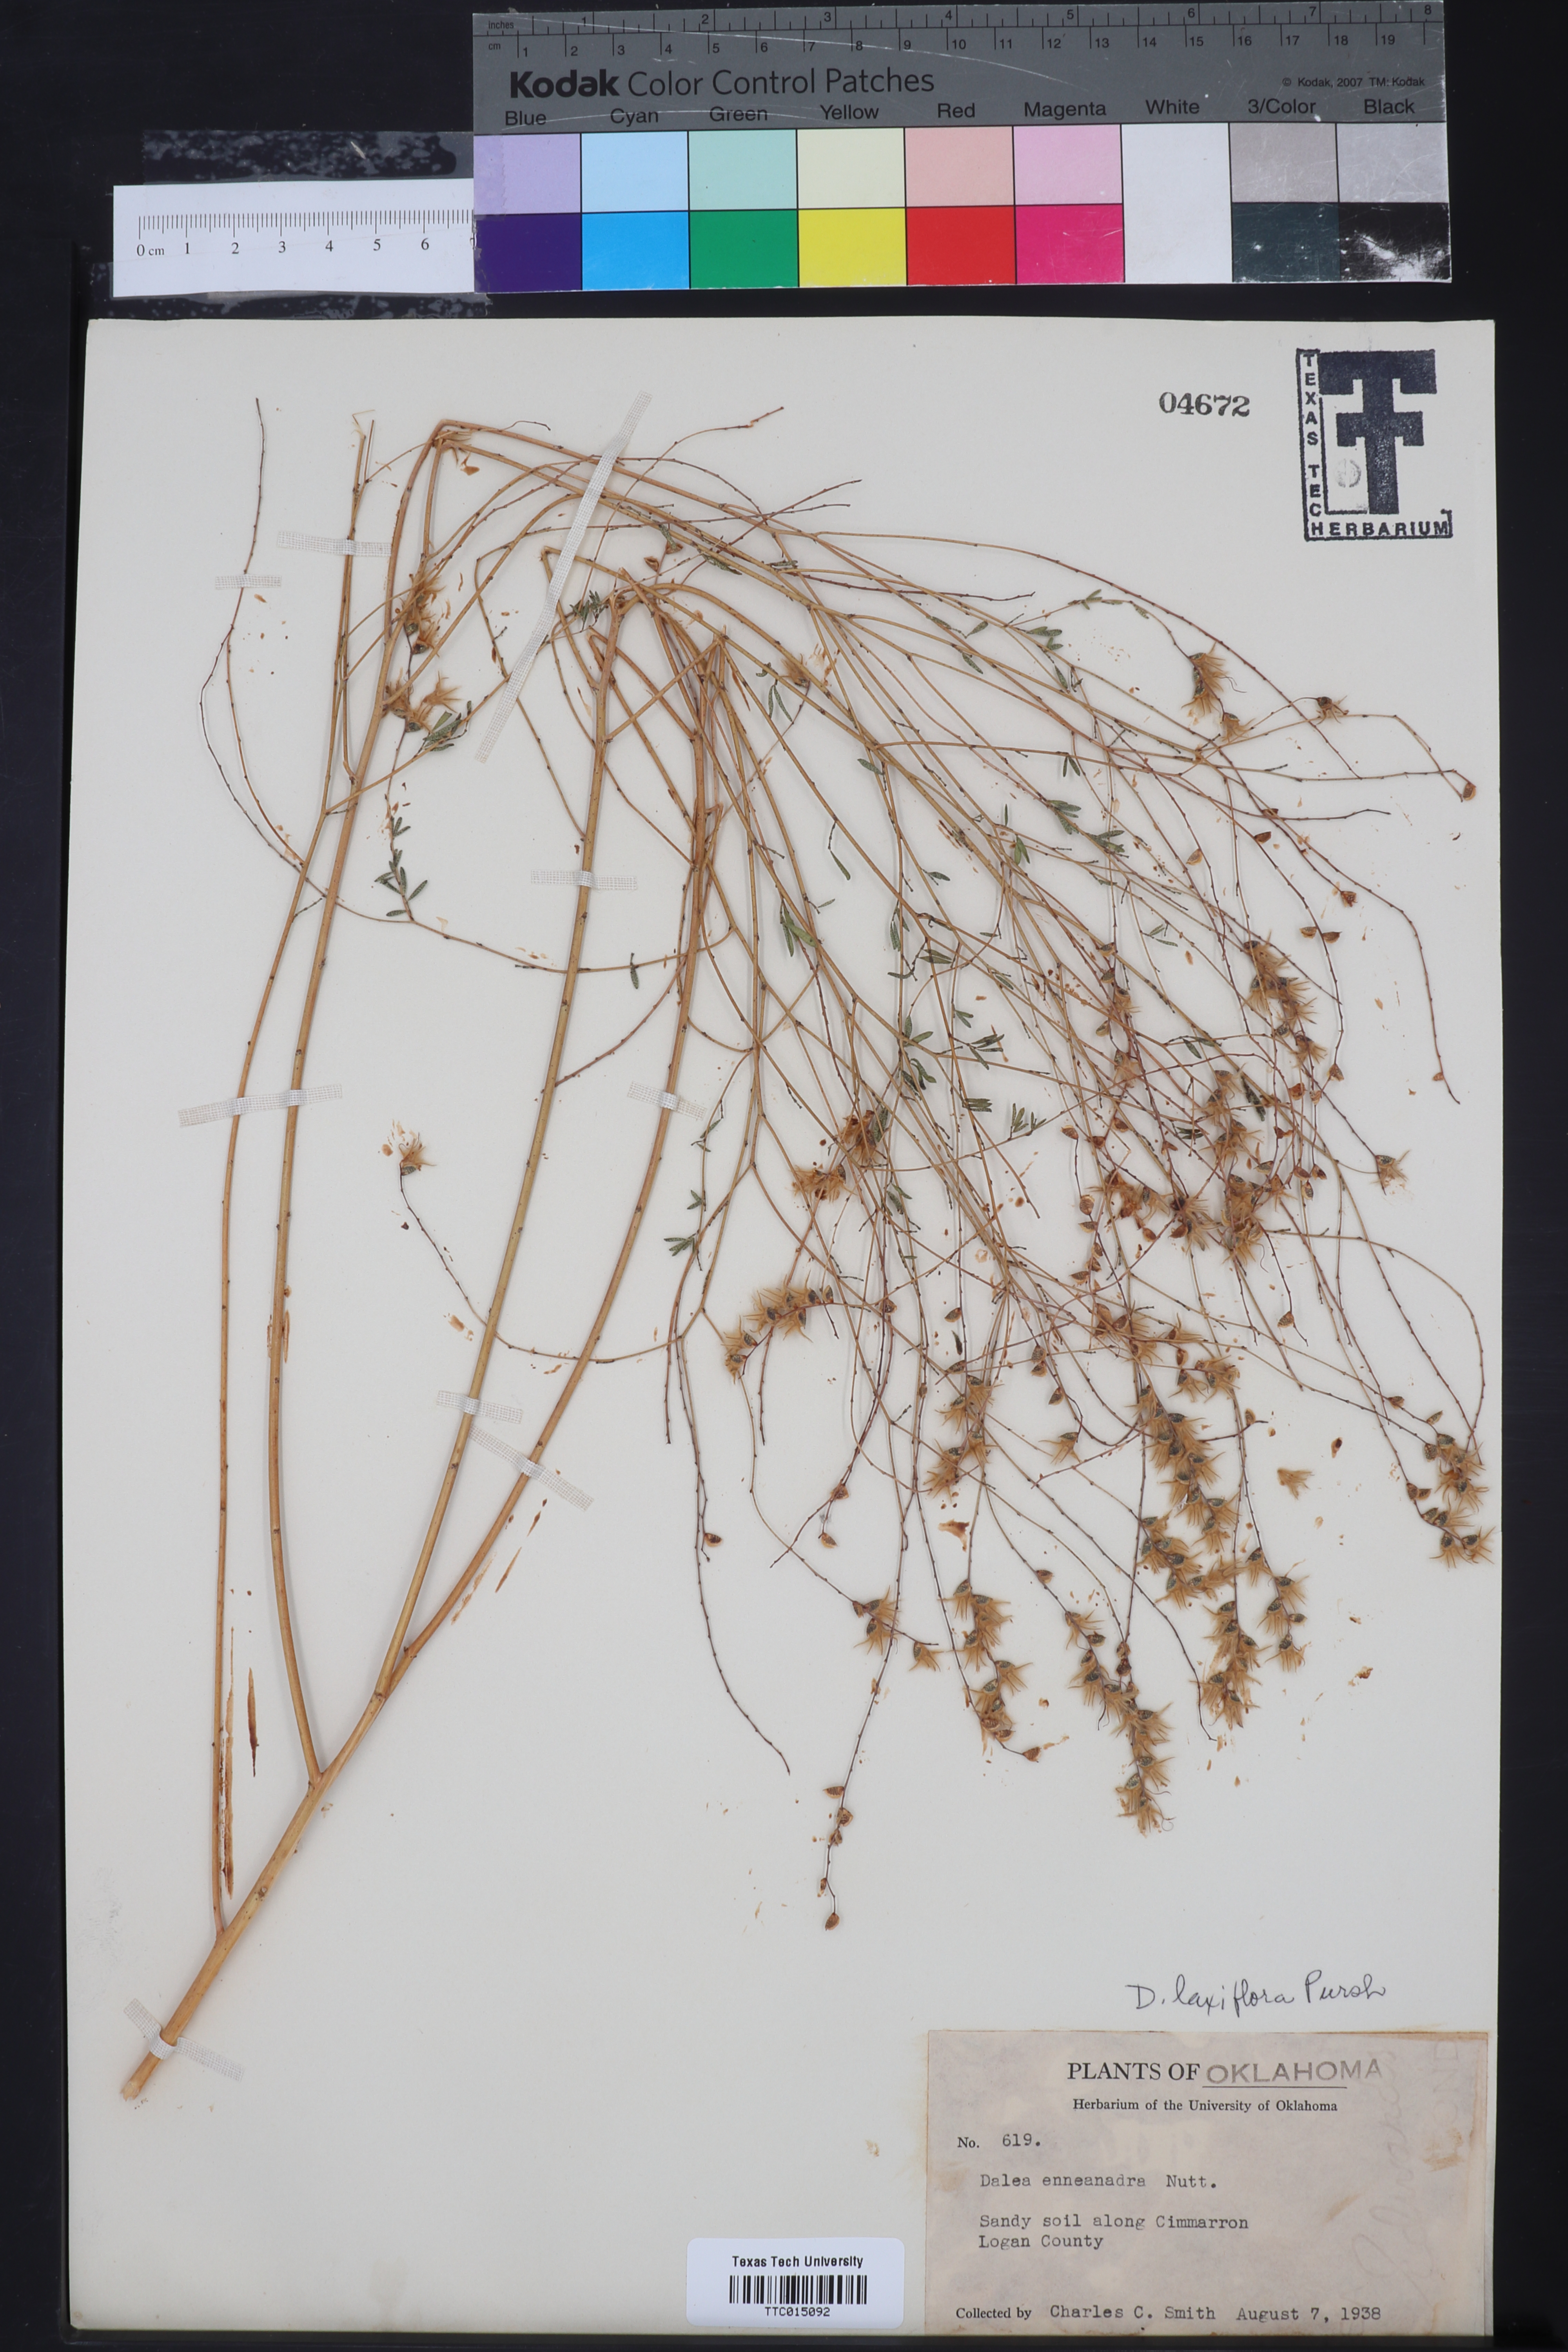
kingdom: Plantae
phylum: Tracheophyta
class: Magnoliopsida
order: Fabales
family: Fabaceae
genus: Dalea
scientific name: Dalea hegewischiana
